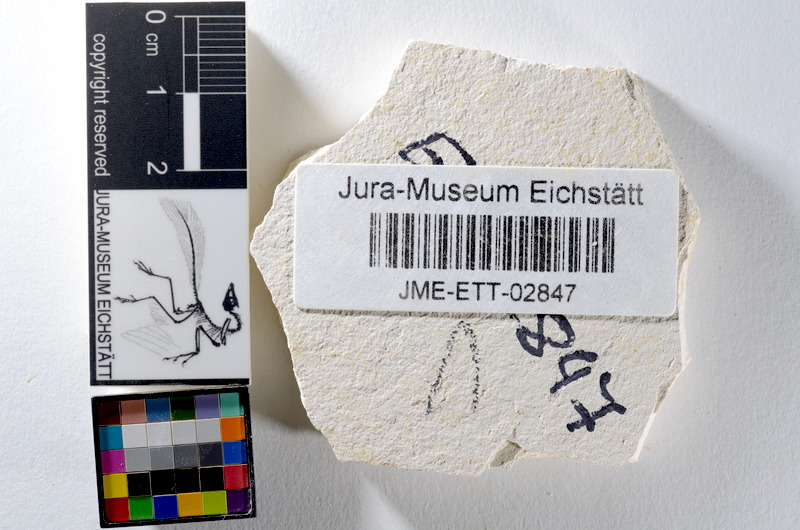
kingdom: Animalia
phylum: Chordata
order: Salmoniformes
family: Orthogonikleithridae
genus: Orthogonikleithrus
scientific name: Orthogonikleithrus hoelli
